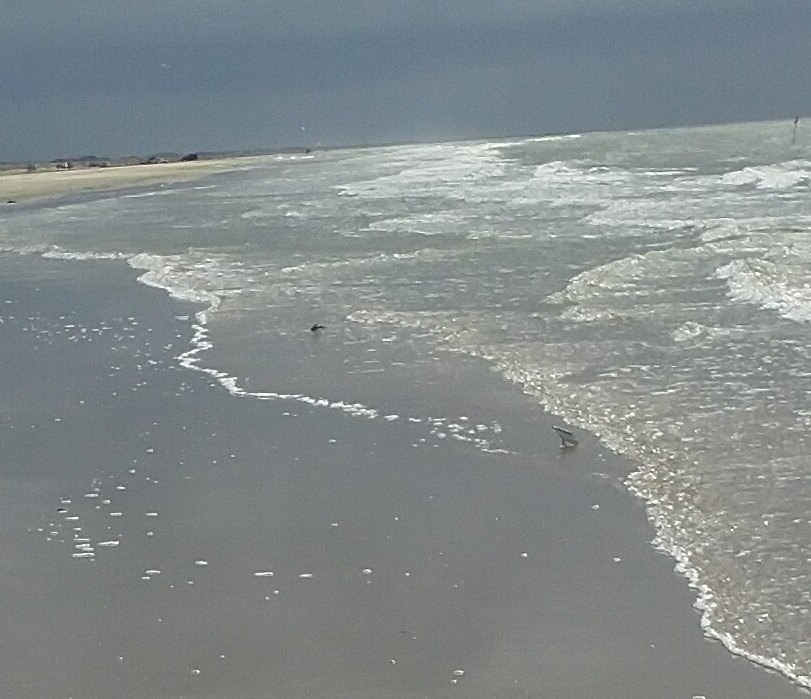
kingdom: Animalia
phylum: Chordata
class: Aves
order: Charadriiformes
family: Scolopacidae
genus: Calidris
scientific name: Calidris alba
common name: Sandløber
